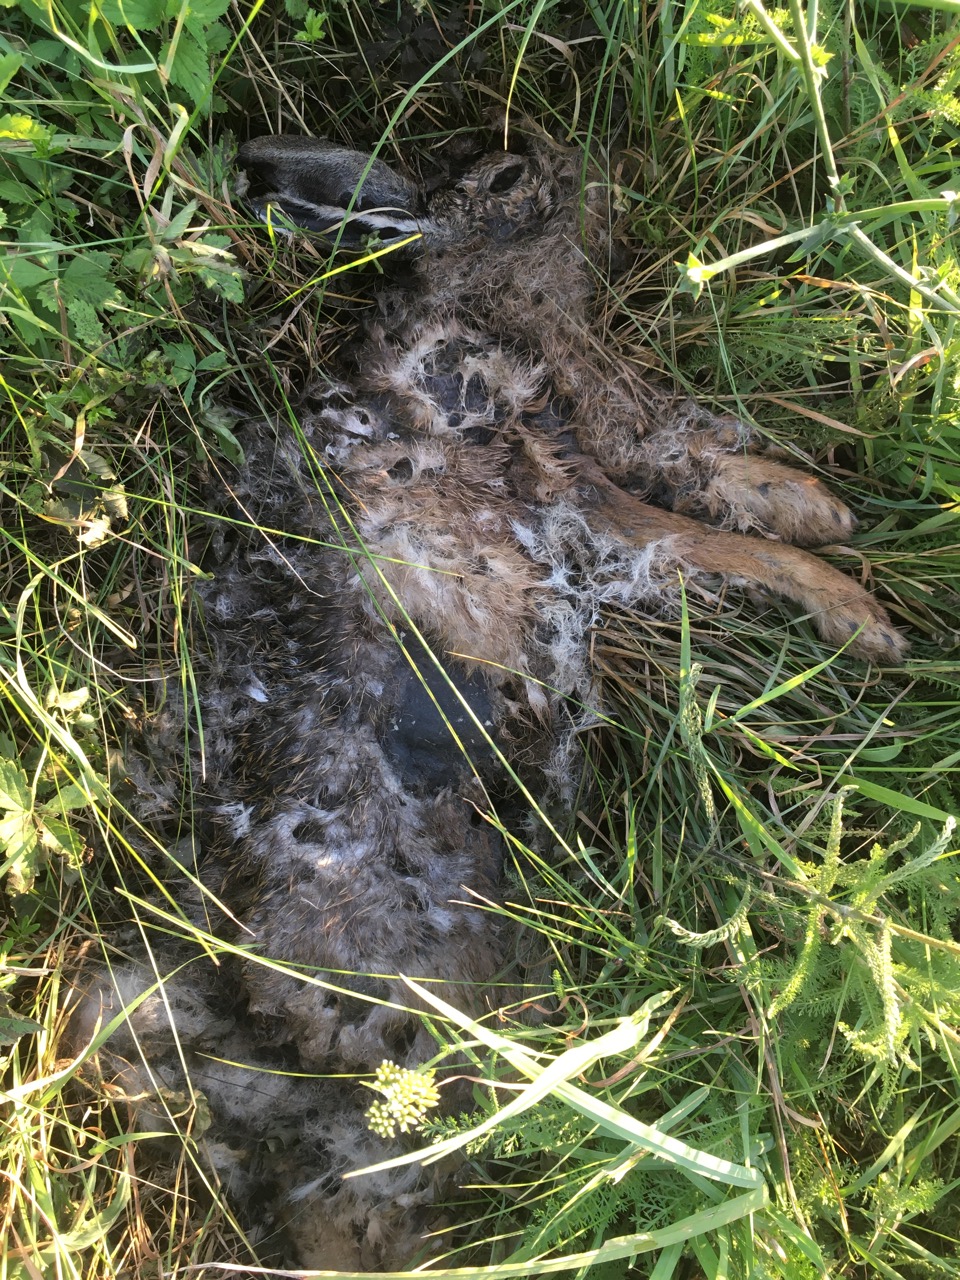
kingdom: Animalia
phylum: Chordata
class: Mammalia
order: Lagomorpha
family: Leporidae
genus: Lepus
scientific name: Lepus europaeus
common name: European hare
